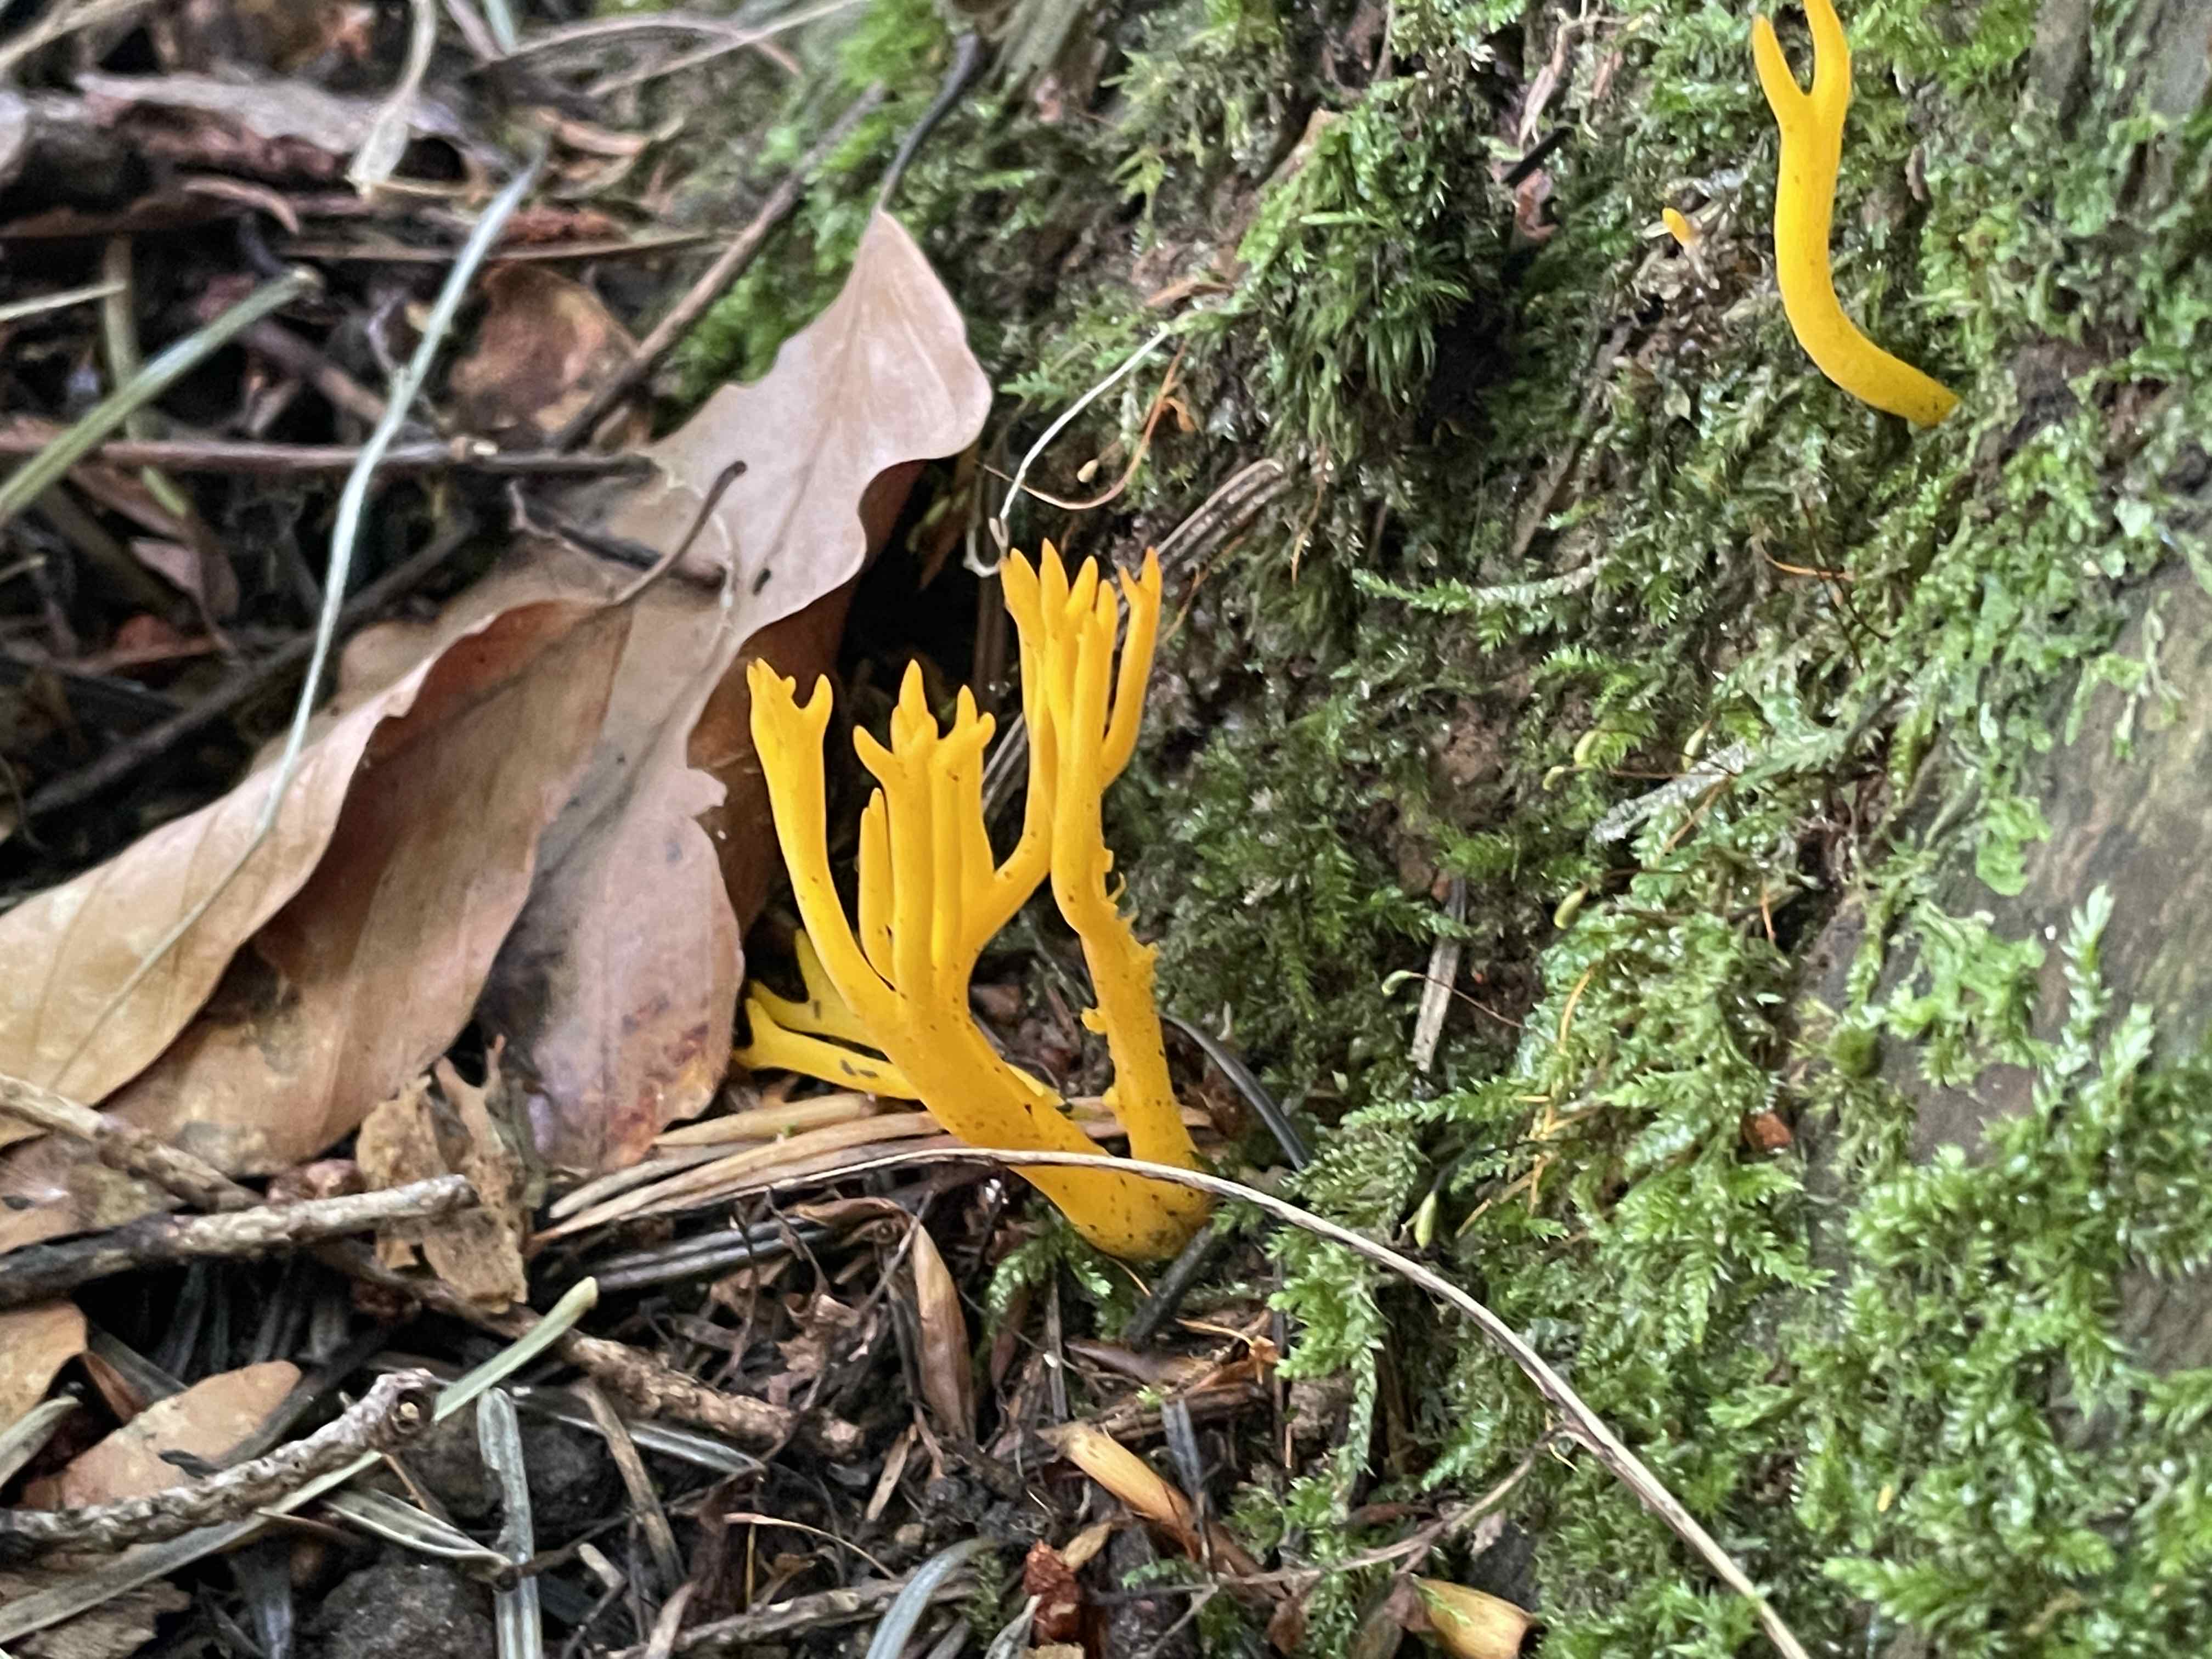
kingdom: Fungi
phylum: Basidiomycota
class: Dacrymycetes
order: Dacrymycetales
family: Dacrymycetaceae
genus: Calocera
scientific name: Calocera viscosa
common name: almindelig guldgaffel
